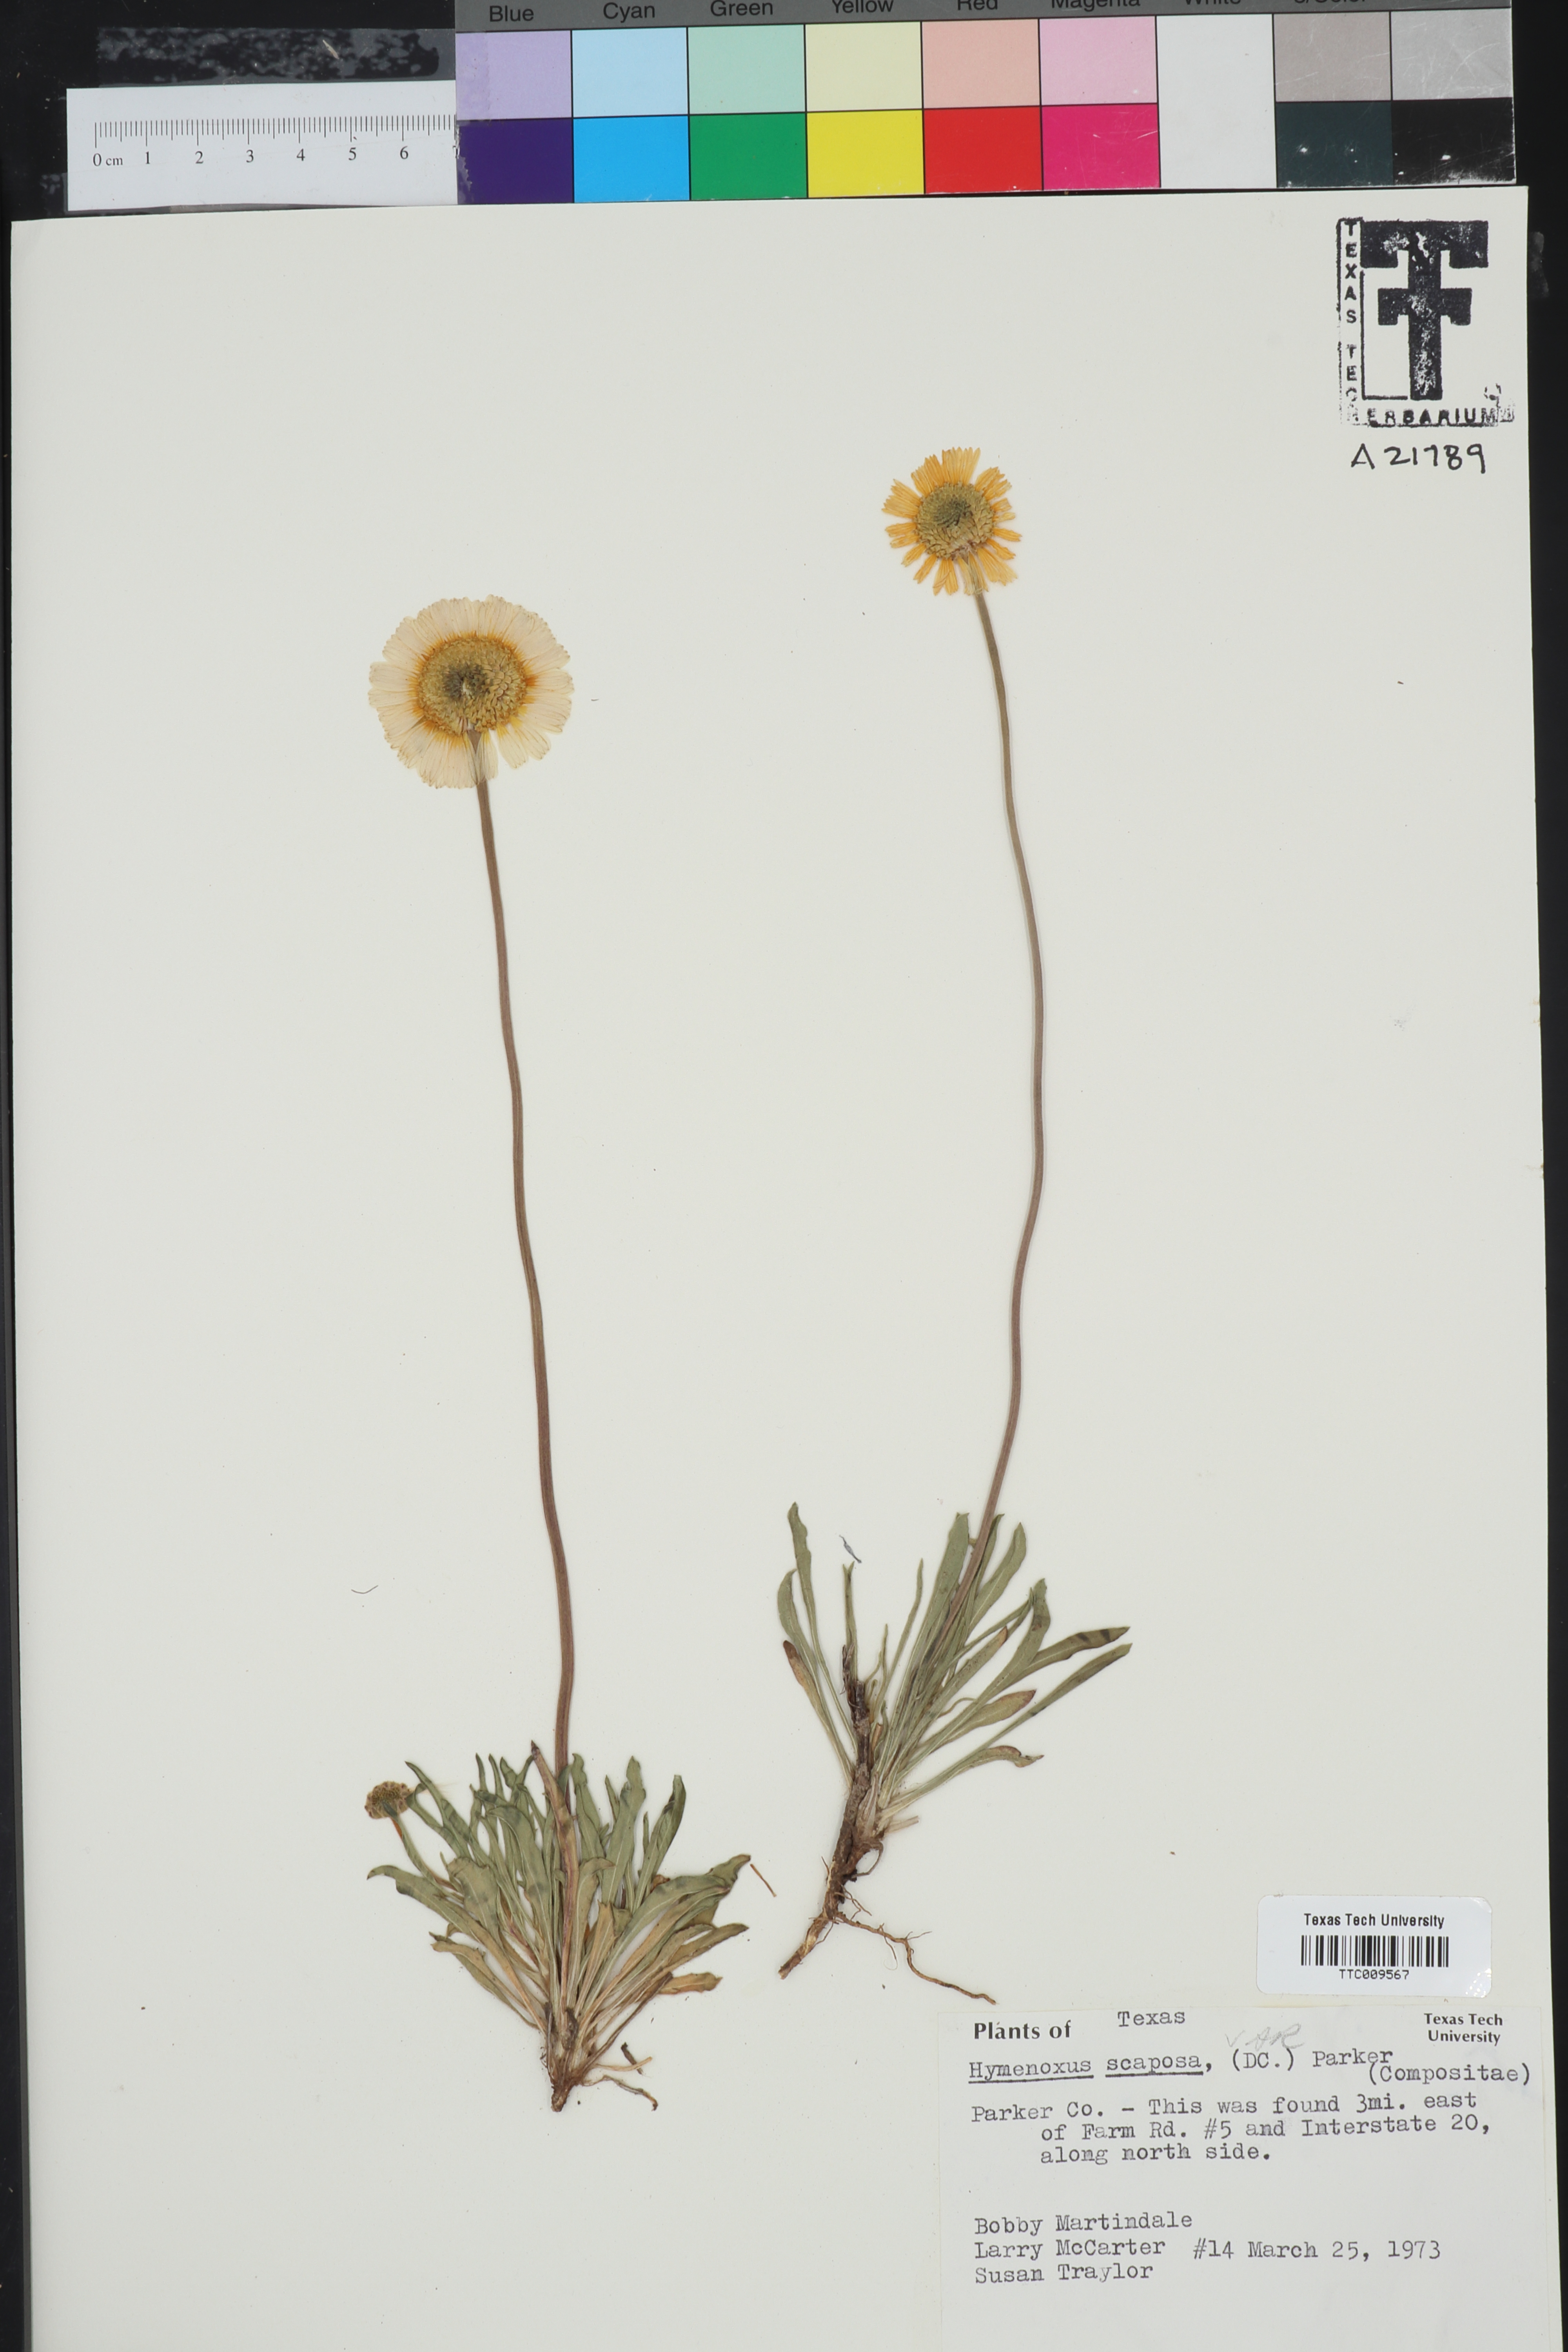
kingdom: Plantae
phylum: Tracheophyta
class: Magnoliopsida
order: Asterales
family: Asteraceae
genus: Tetraneuris
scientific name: Tetraneuris scaposa
